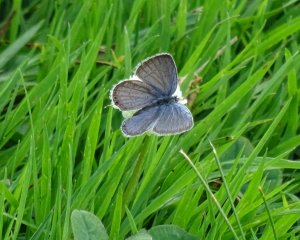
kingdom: Animalia
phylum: Arthropoda
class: Insecta
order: Lepidoptera
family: Lycaenidae
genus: Elkalyce
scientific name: Elkalyce comyntas
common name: Eastern Tailed-Blue
